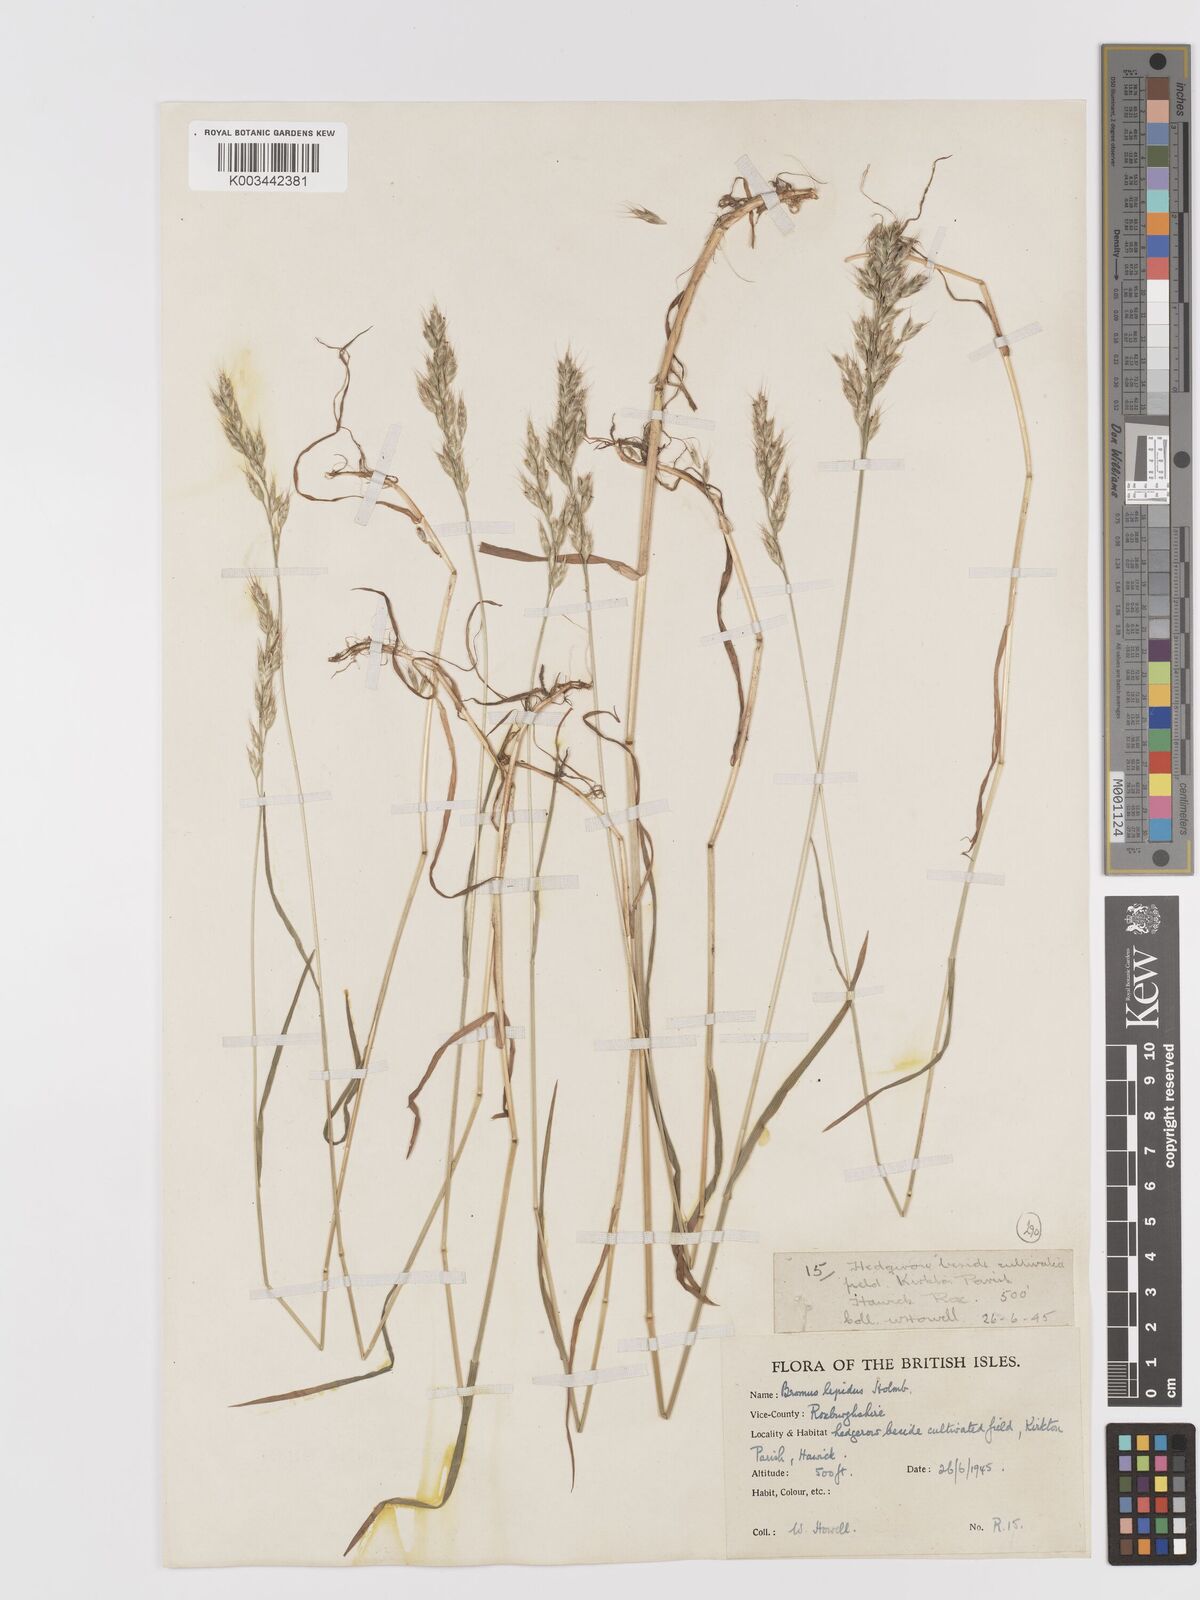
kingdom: Plantae
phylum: Tracheophyta
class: Liliopsida
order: Poales
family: Poaceae
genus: Bromus
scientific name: Bromus
